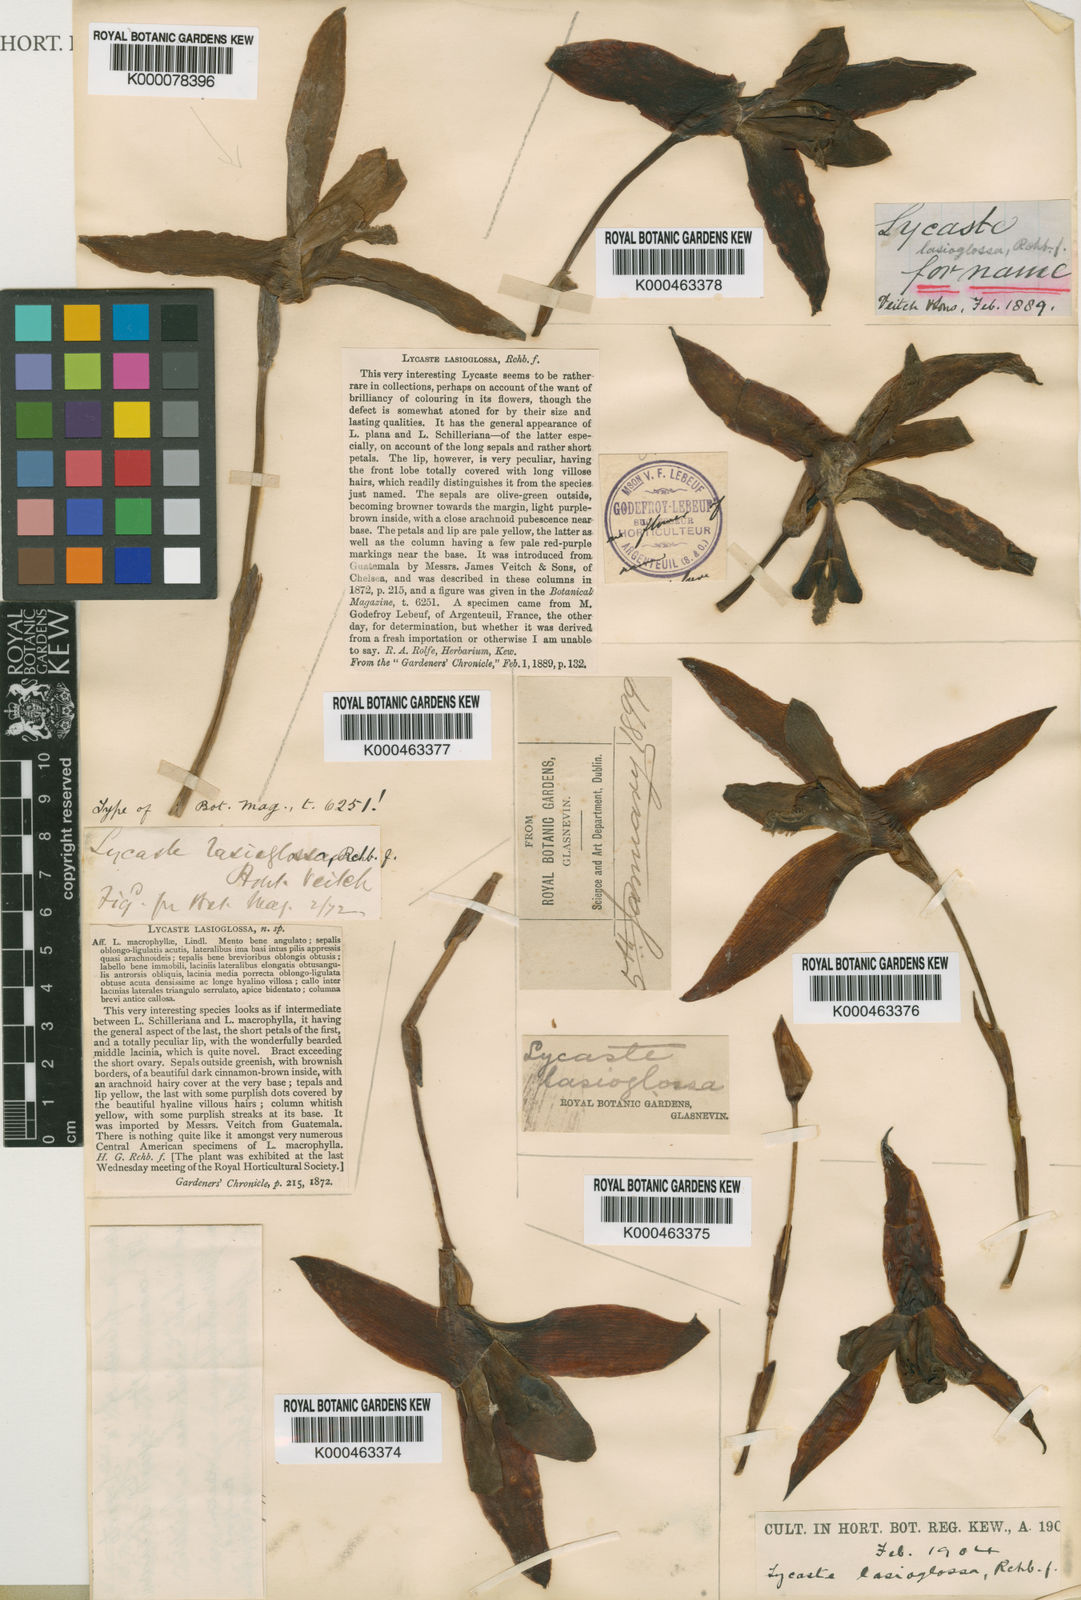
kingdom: Plantae
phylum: Tracheophyta
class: Liliopsida
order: Asparagales
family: Orchidaceae
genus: Lycaste
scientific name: Lycaste lasioglossa
